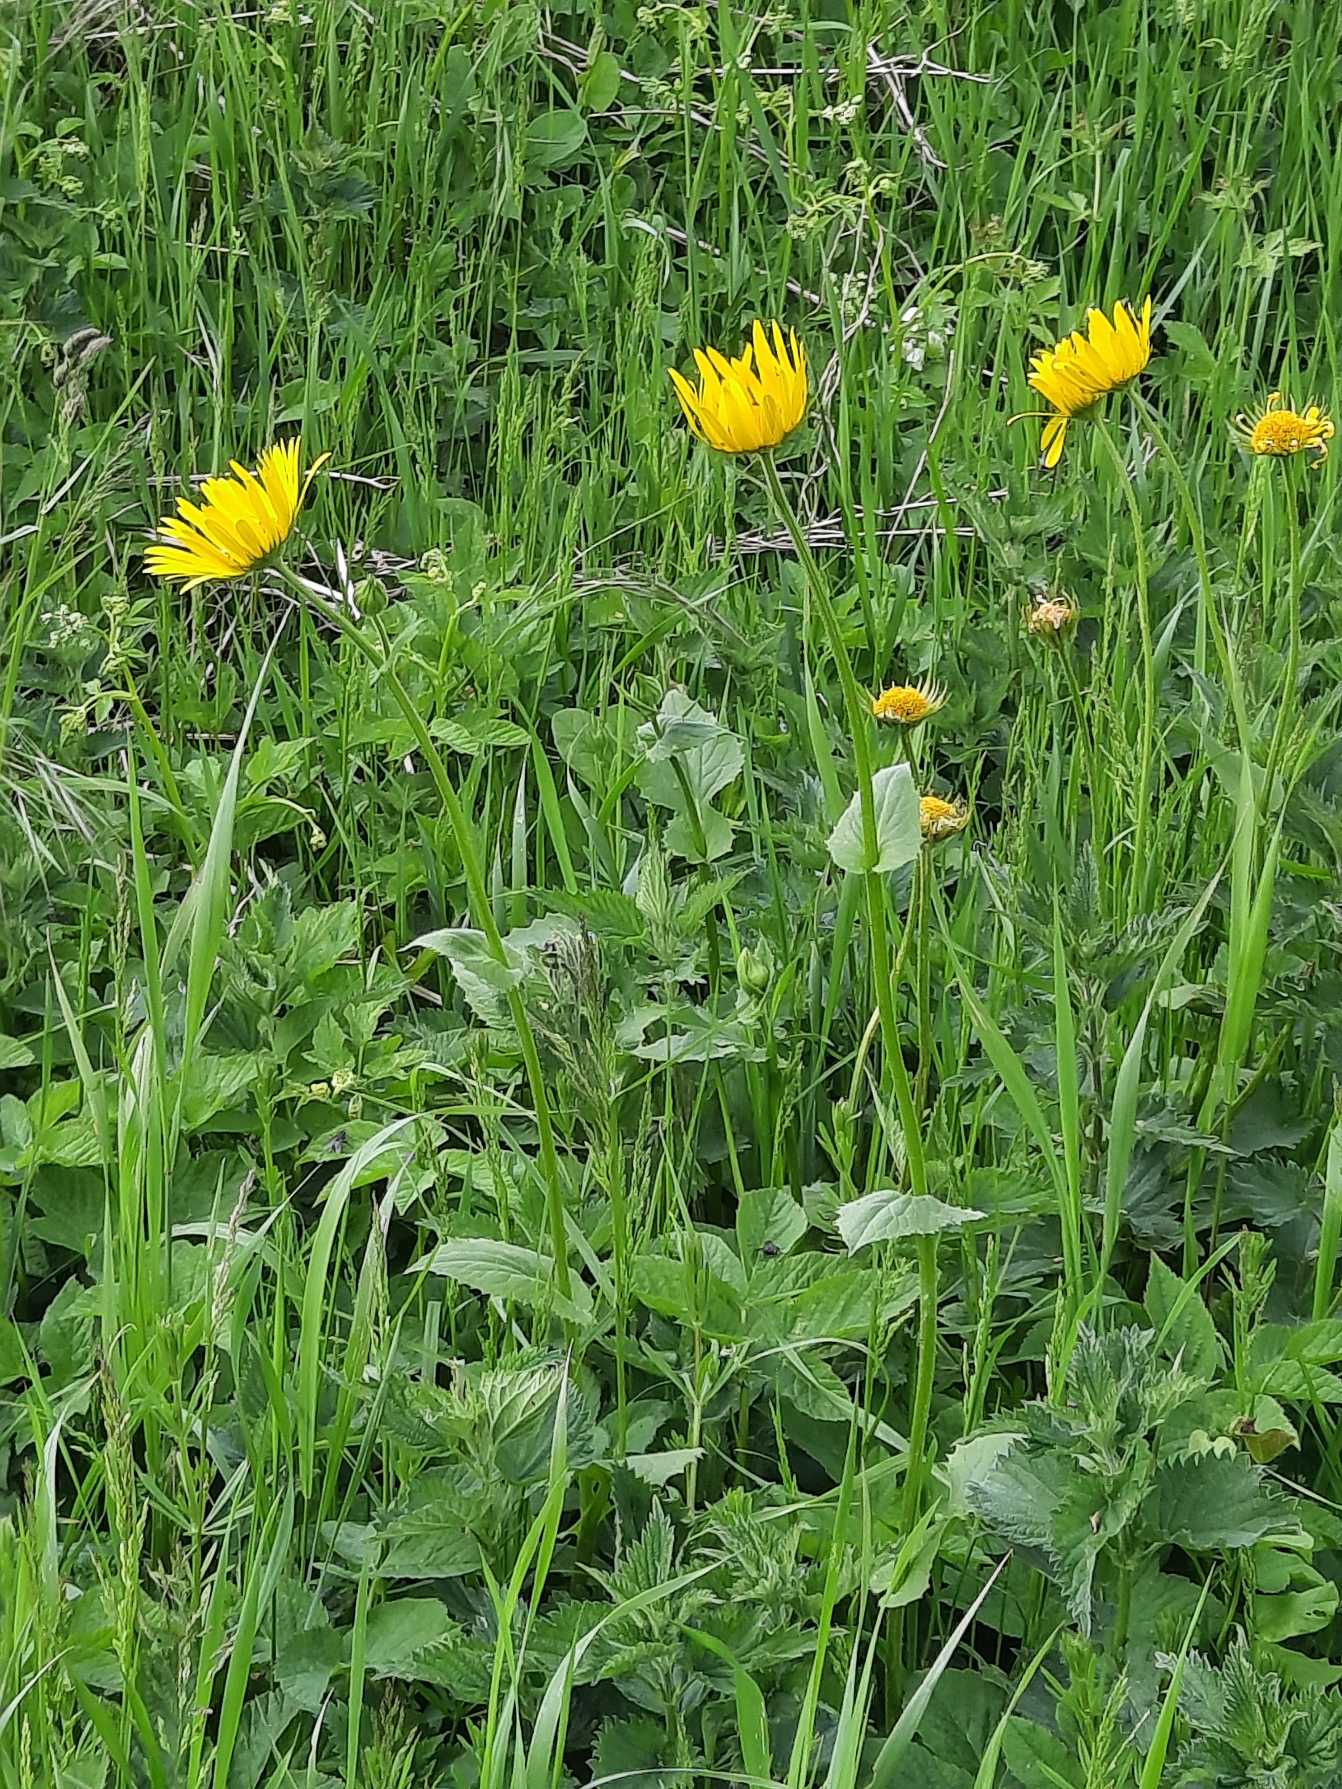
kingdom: Plantae
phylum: Tracheophyta
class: Magnoliopsida
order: Asterales
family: Asteraceae
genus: Doronicum
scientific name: Doronicum columnae
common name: Tue-gemserod
